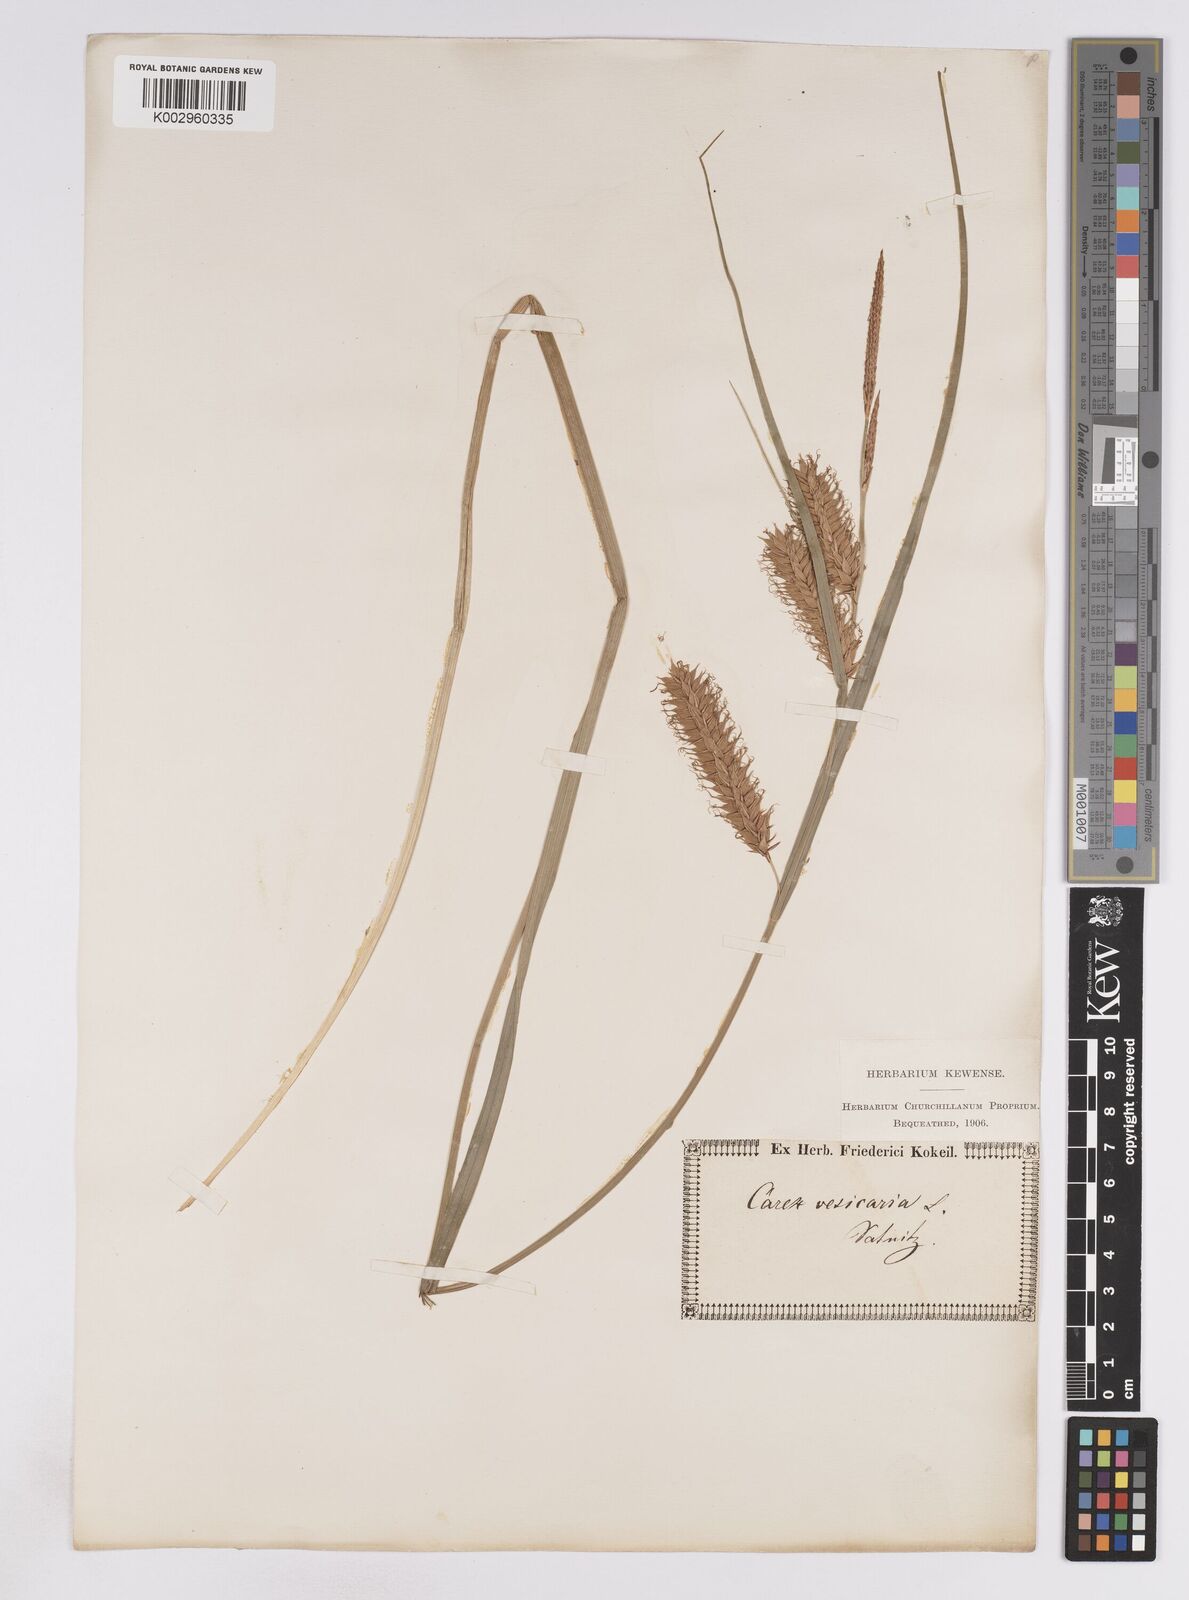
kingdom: Plantae
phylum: Tracheophyta
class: Liliopsida
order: Poales
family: Cyperaceae
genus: Carex
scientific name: Carex vesicaria
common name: Bladder-sedge
